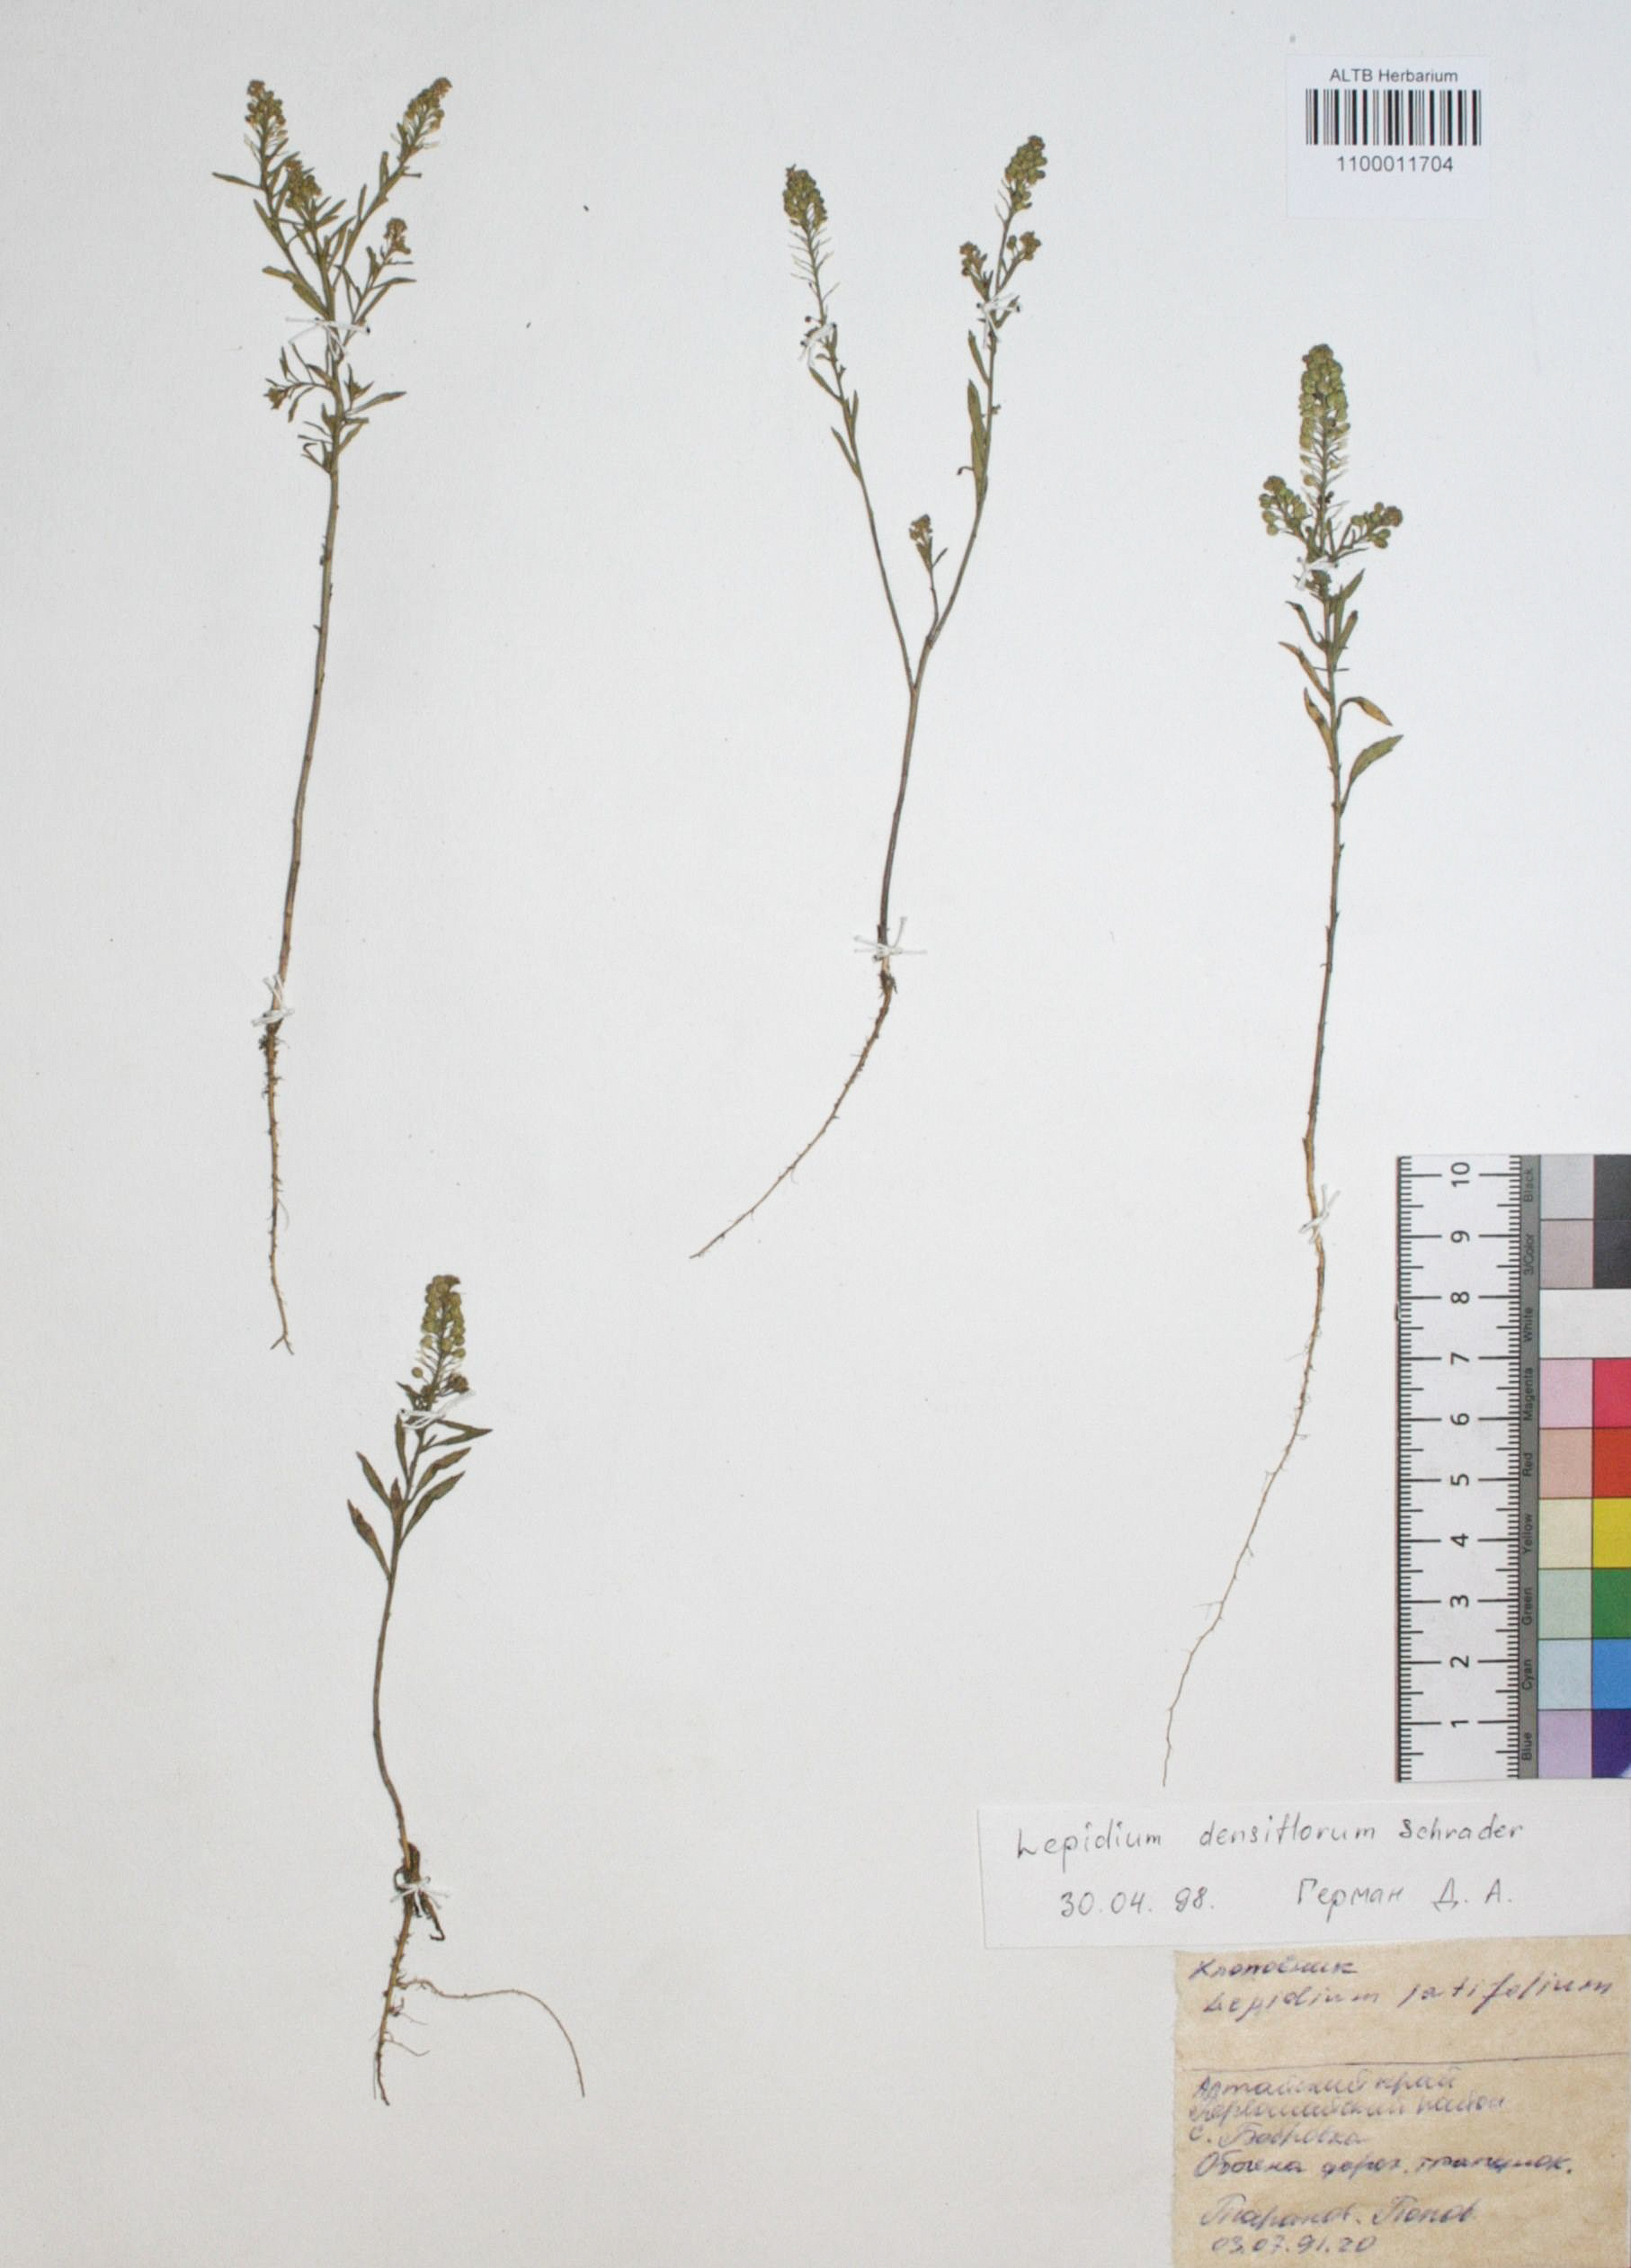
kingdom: Plantae
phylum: Tracheophyta
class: Magnoliopsida
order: Brassicales
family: Brassicaceae
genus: Lepidium
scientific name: Lepidium densiflorum
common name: Miner's pepperwort
